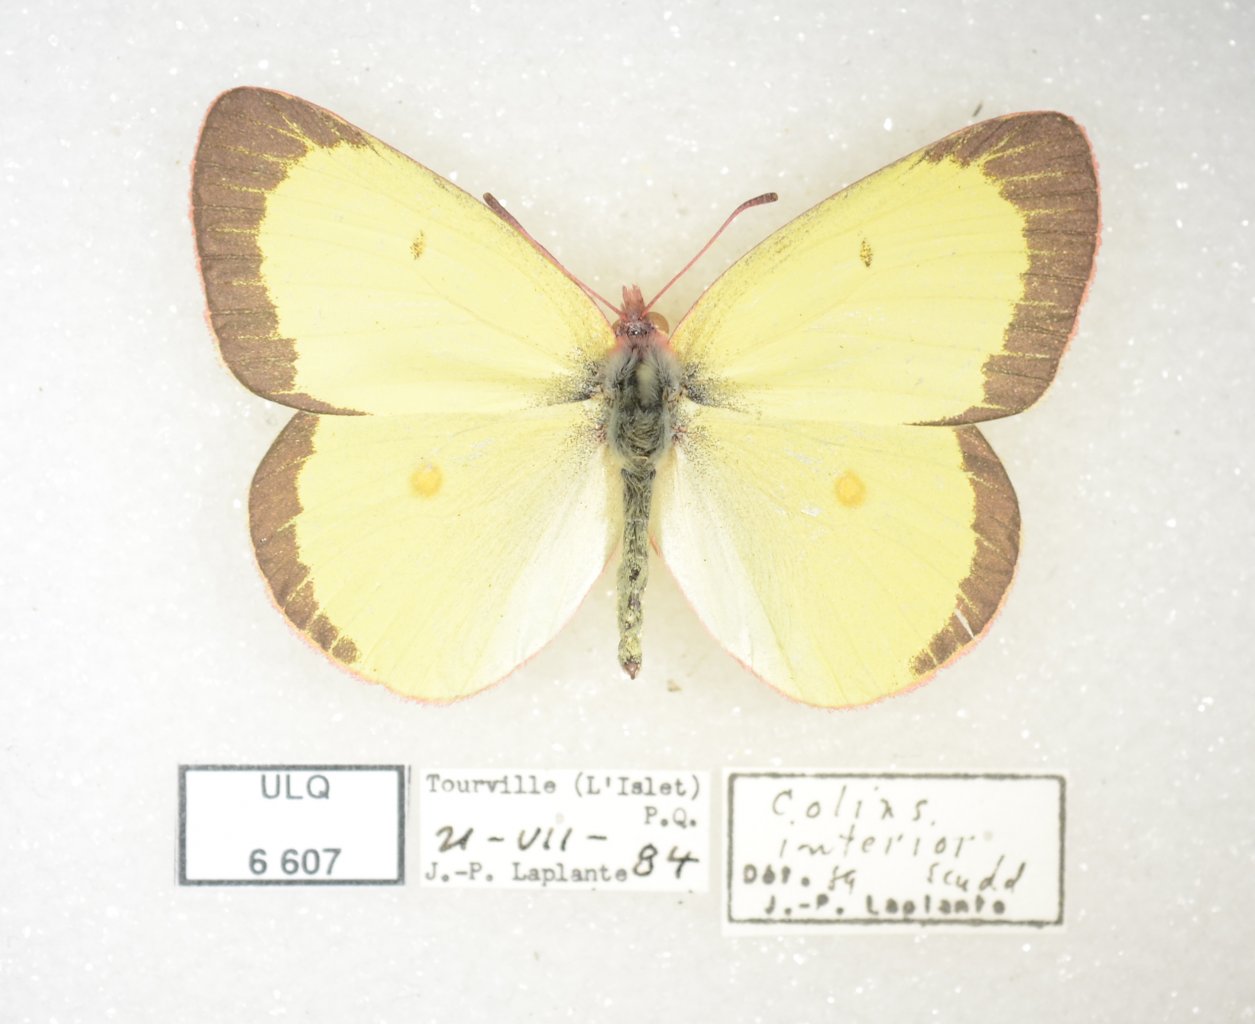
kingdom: Animalia
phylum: Arthropoda
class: Insecta
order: Lepidoptera
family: Pieridae
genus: Colias
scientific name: Colias interior
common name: Pink-edged Sulphur
